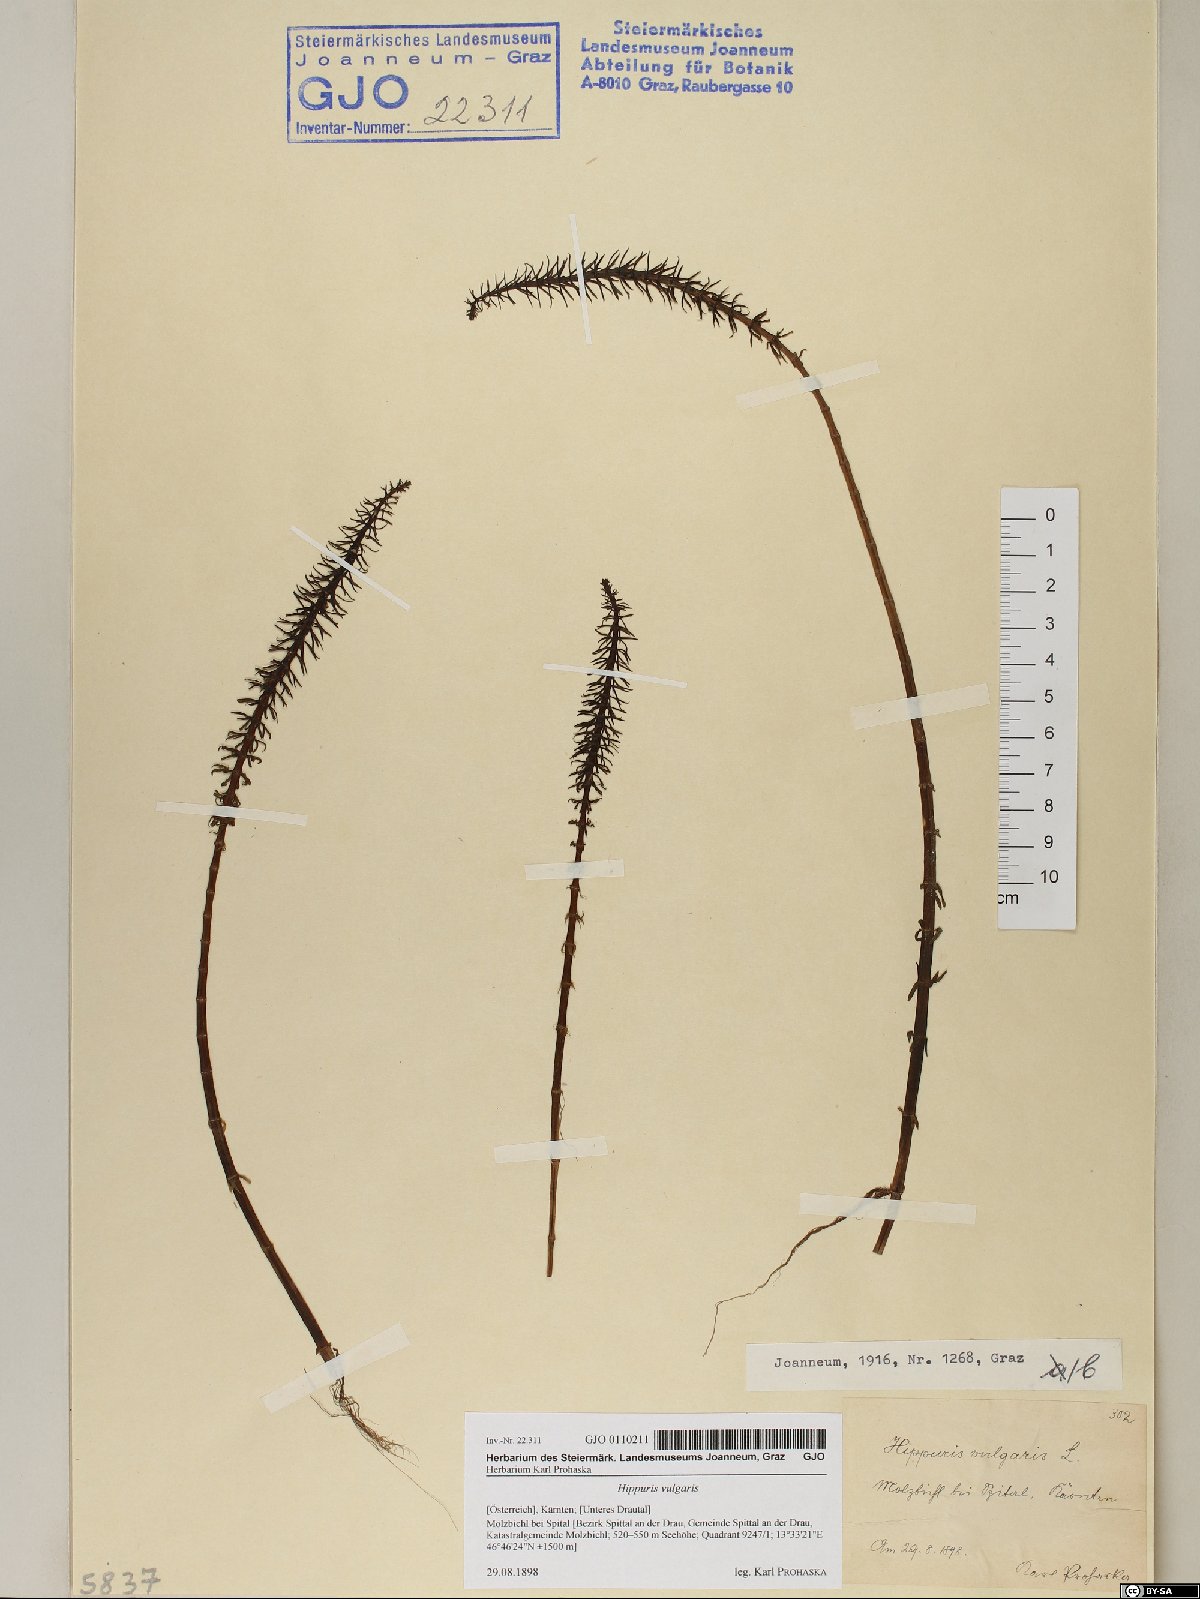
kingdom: Plantae
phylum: Tracheophyta
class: Magnoliopsida
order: Lamiales
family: Plantaginaceae
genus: Hippuris
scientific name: Hippuris vulgaris
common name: Mare's-tail
